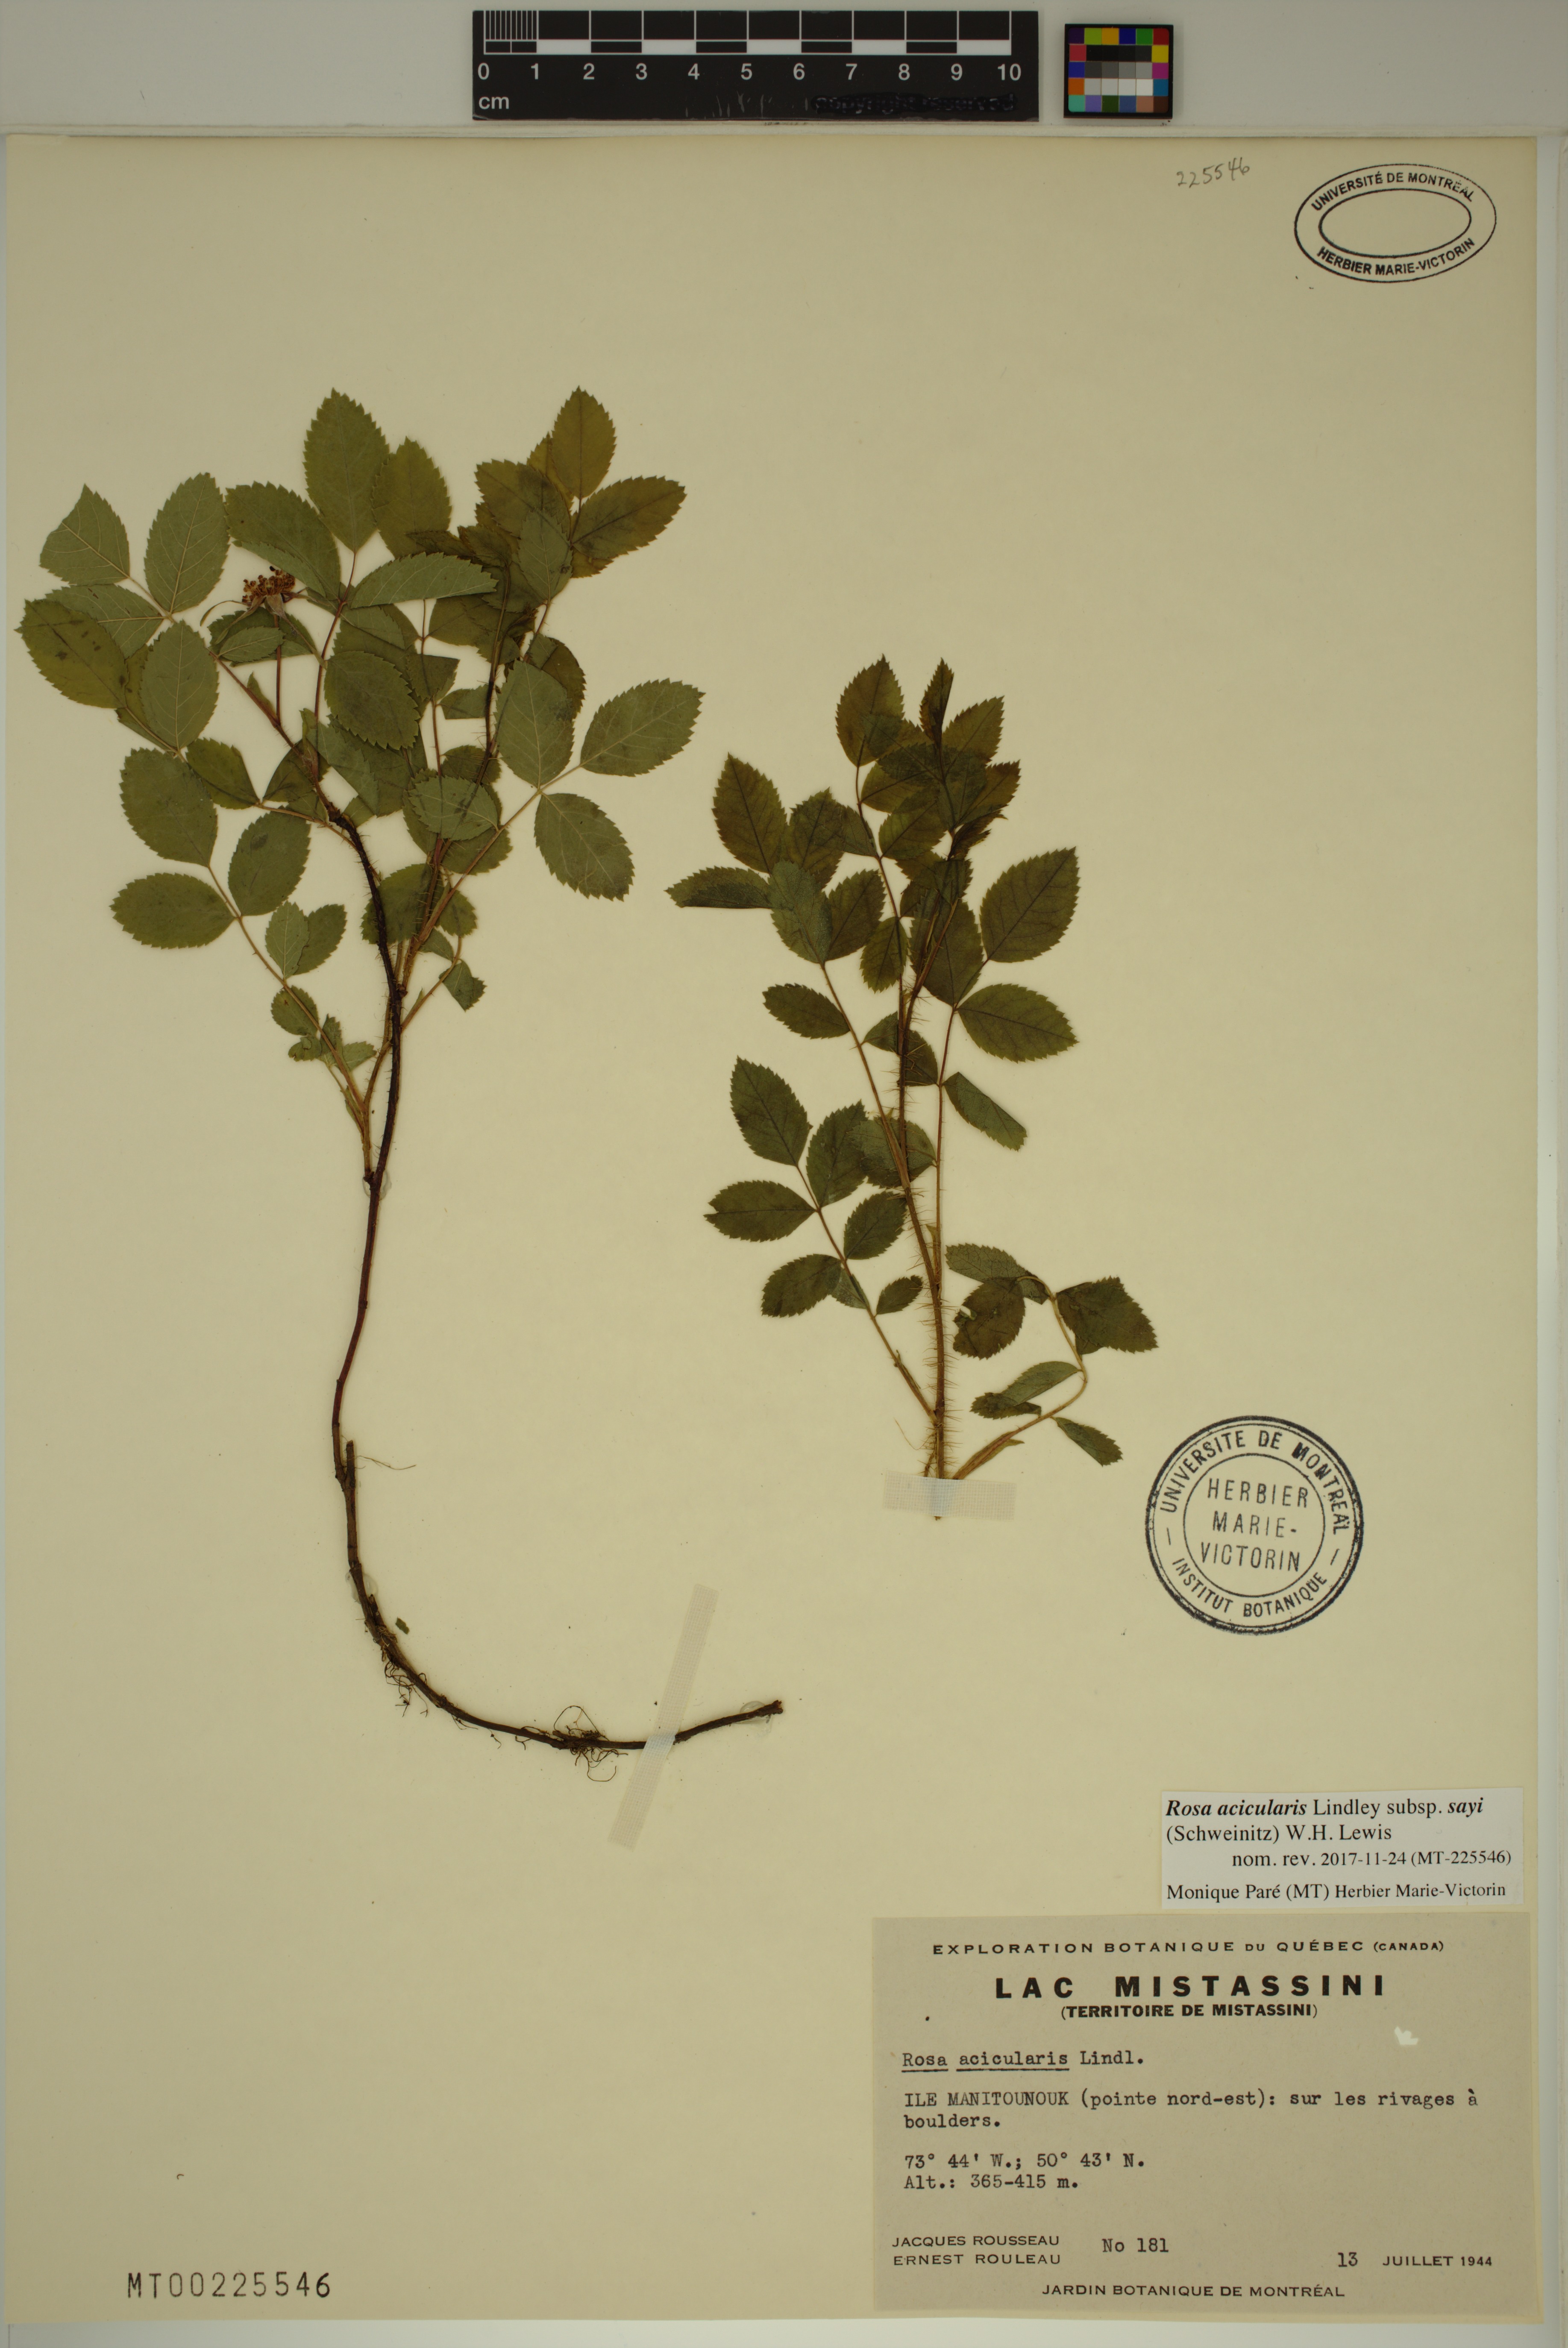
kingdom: Plantae
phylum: Tracheophyta
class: Magnoliopsida
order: Rosales
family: Rosaceae
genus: Rosa
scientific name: Rosa acicularis
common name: Prickly rose
